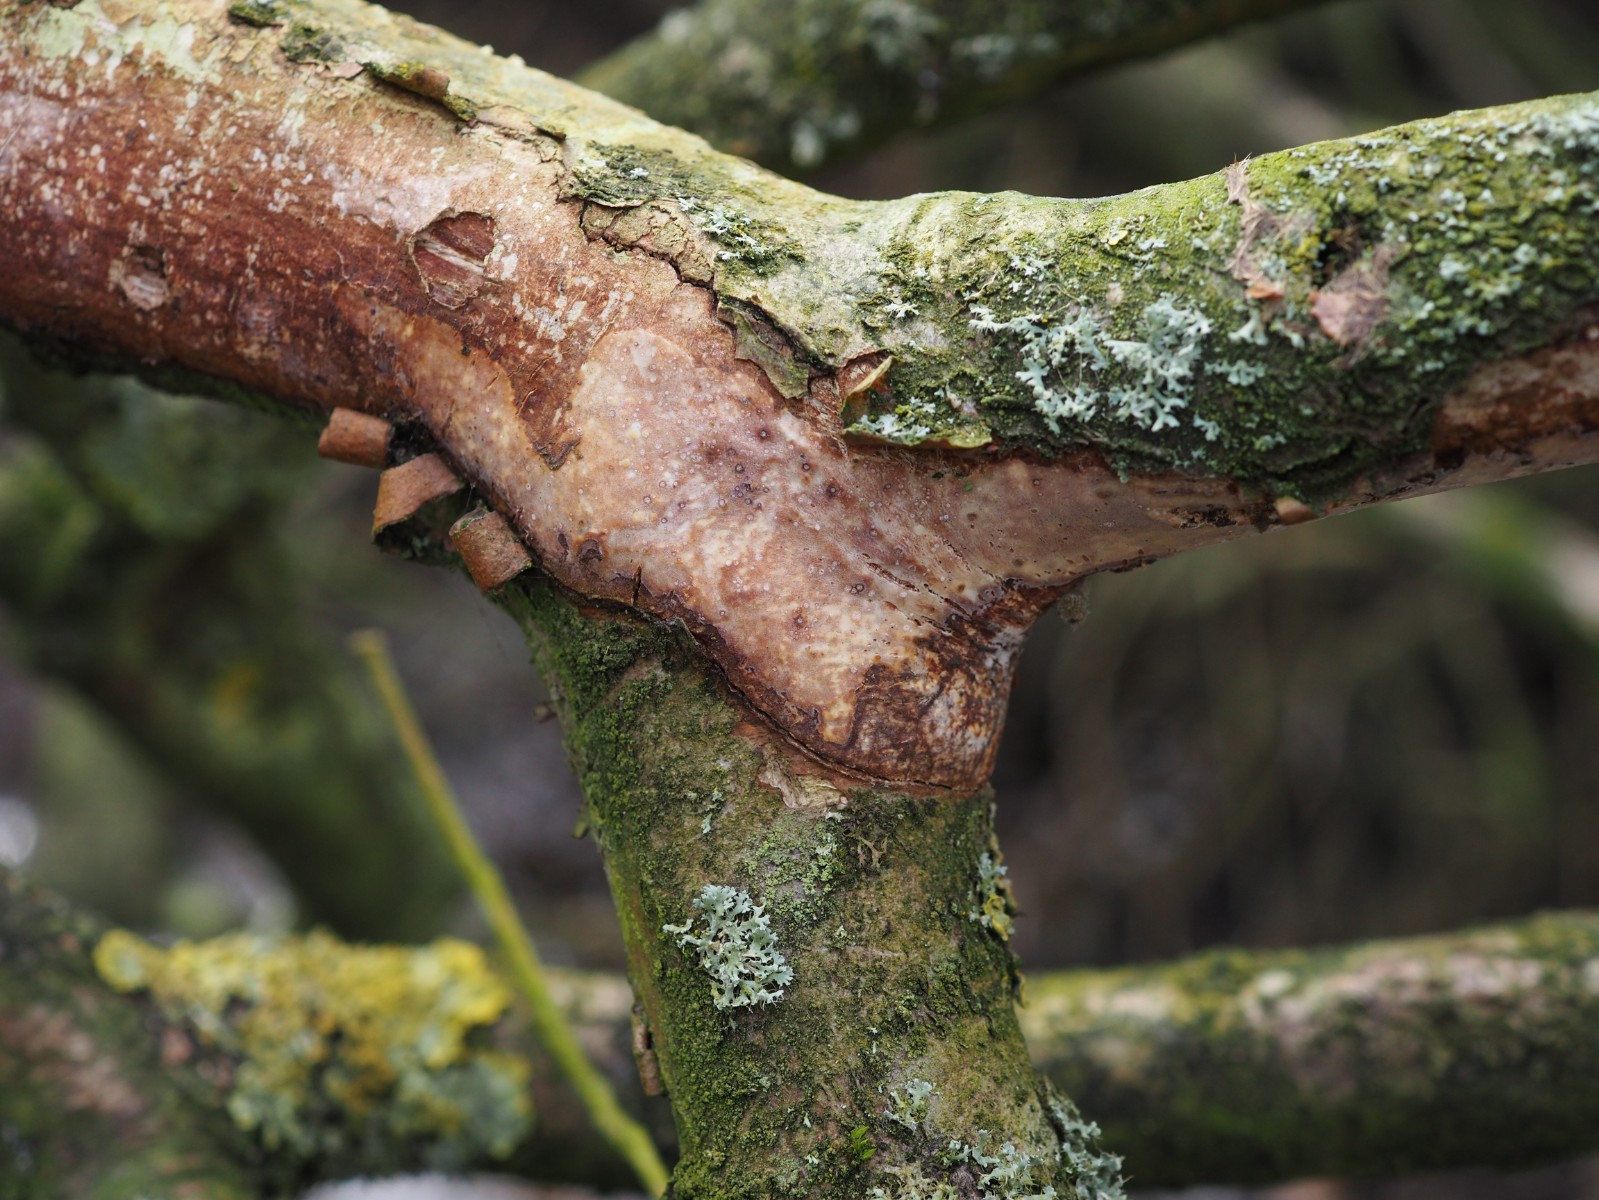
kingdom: Fungi
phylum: Basidiomycota
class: Agaricomycetes
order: Corticiales
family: Vuilleminiaceae
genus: Vuilleminia
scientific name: Vuilleminia coryli
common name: hassel-barksprænger
